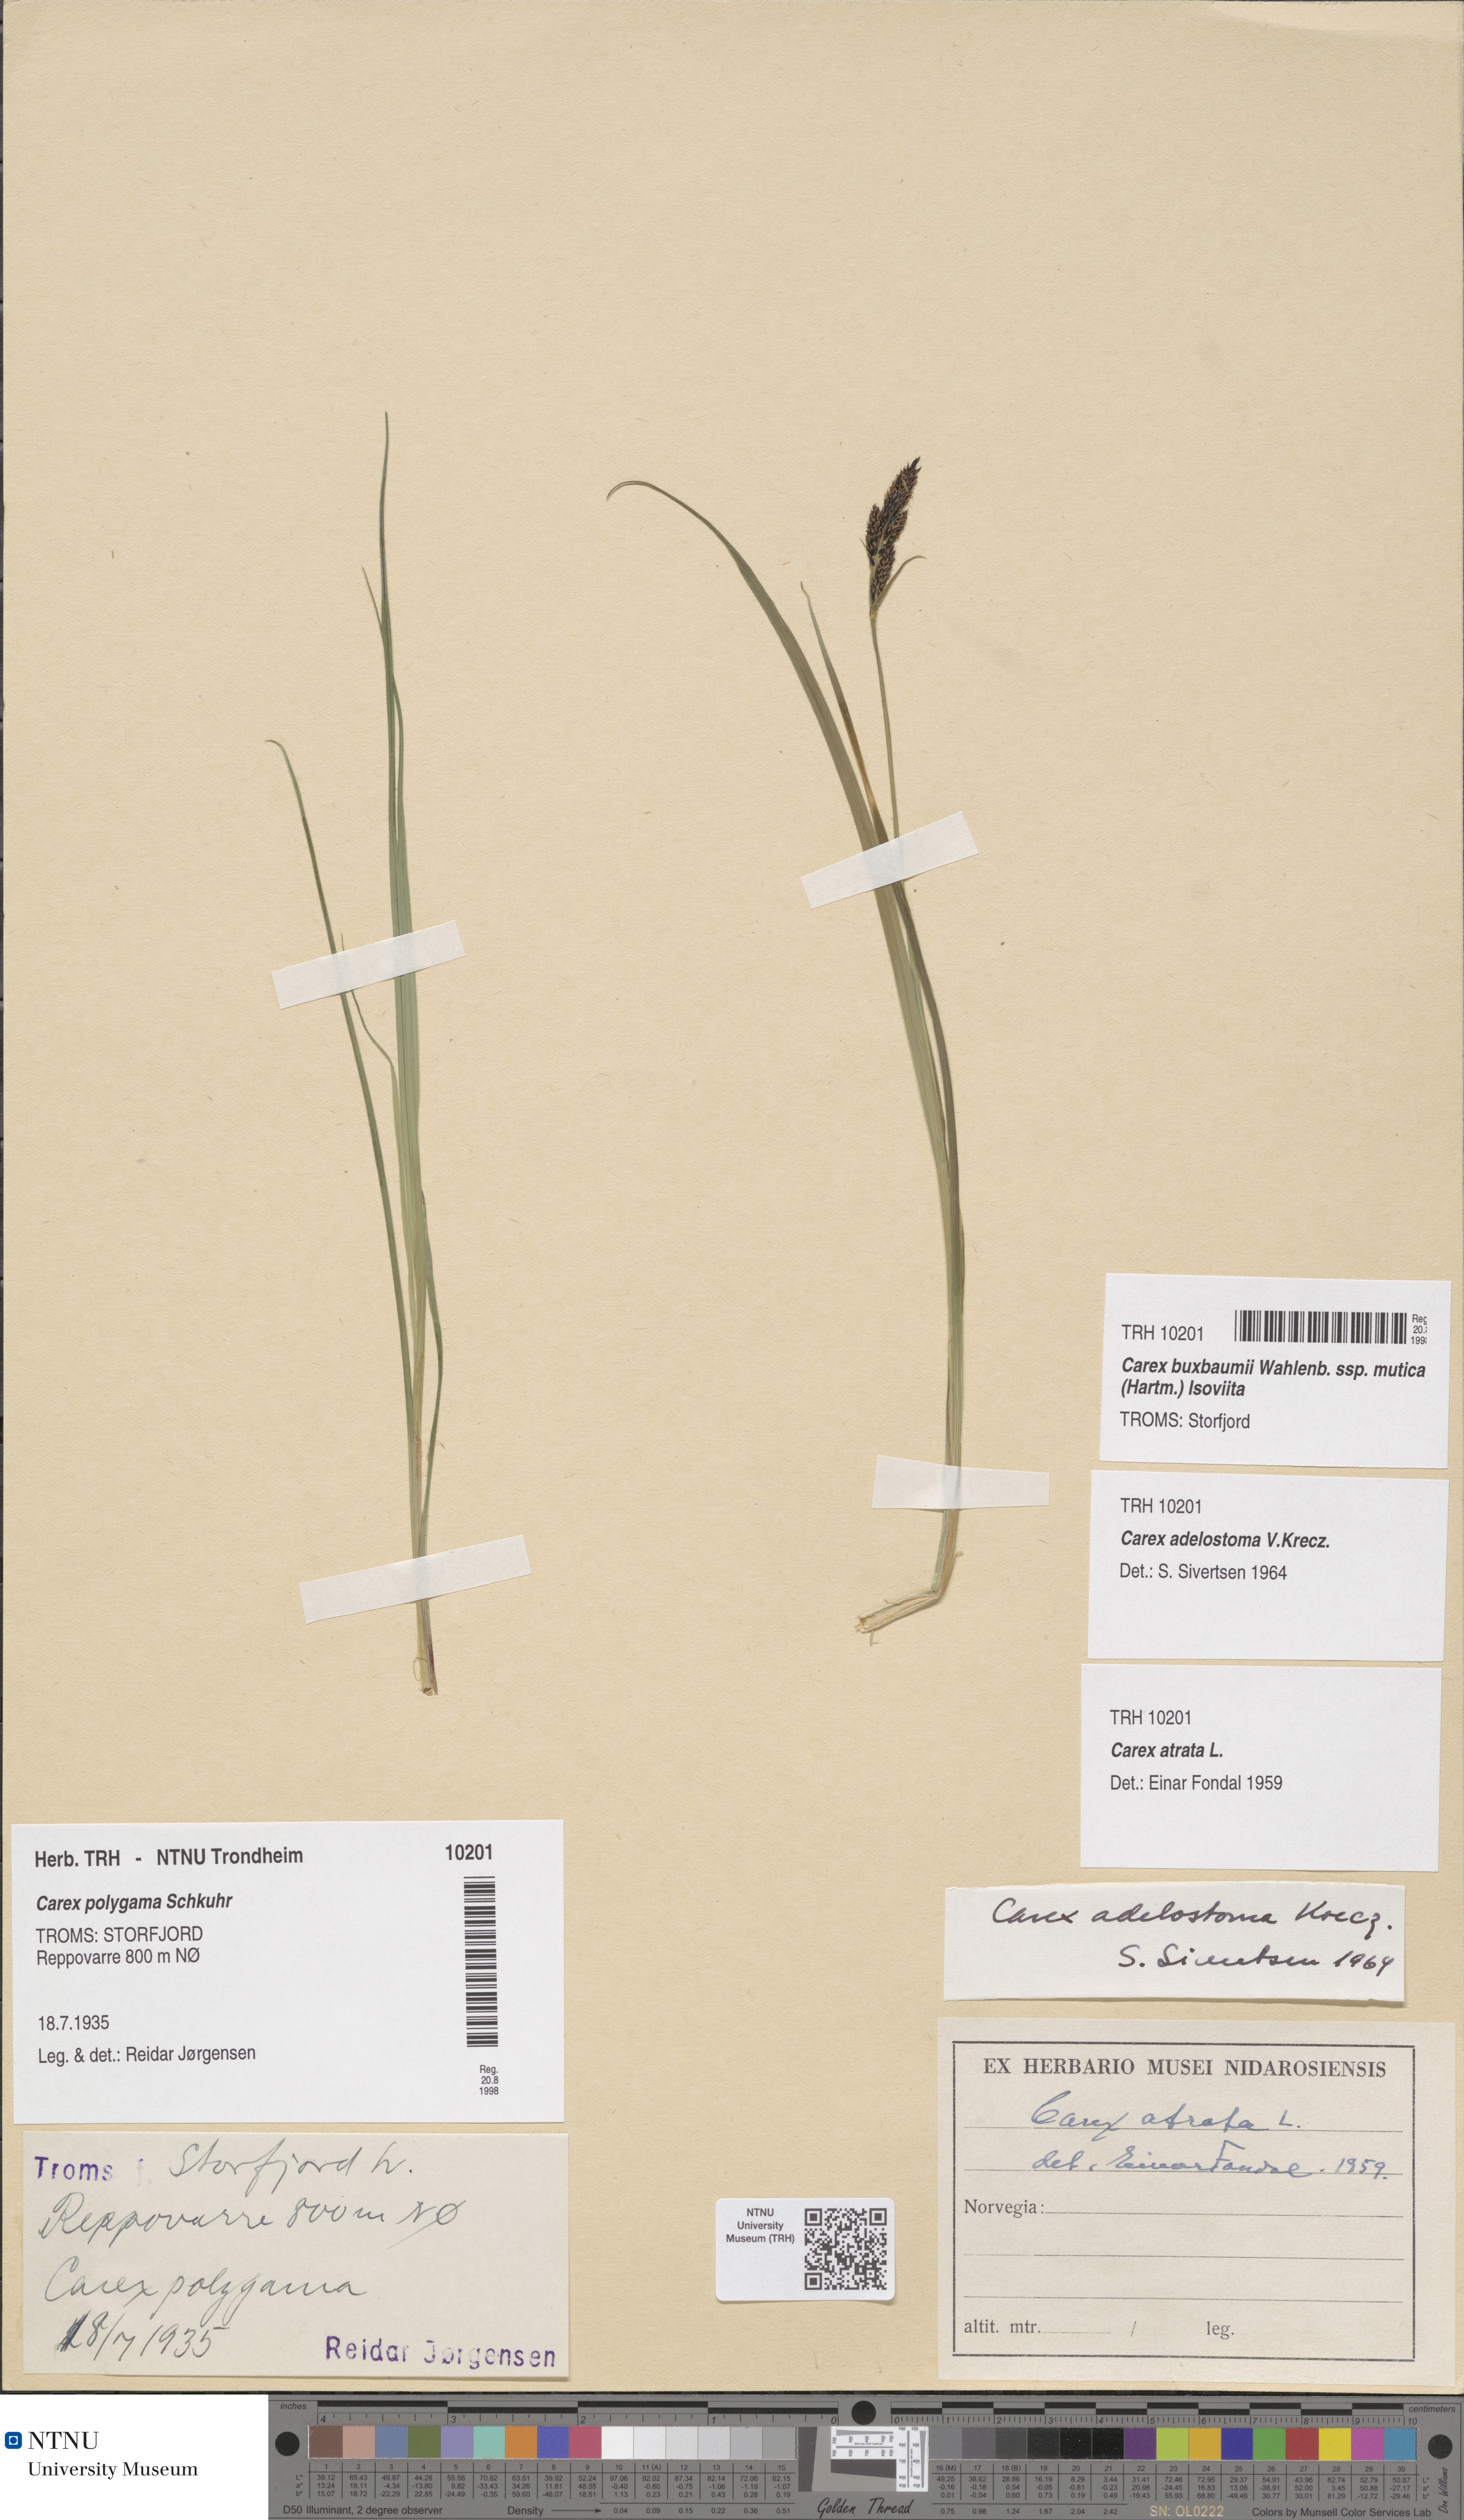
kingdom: Plantae
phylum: Tracheophyta
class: Liliopsida
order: Poales
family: Cyperaceae
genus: Carex
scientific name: Carex adelostoma
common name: Circumpolar sedge
